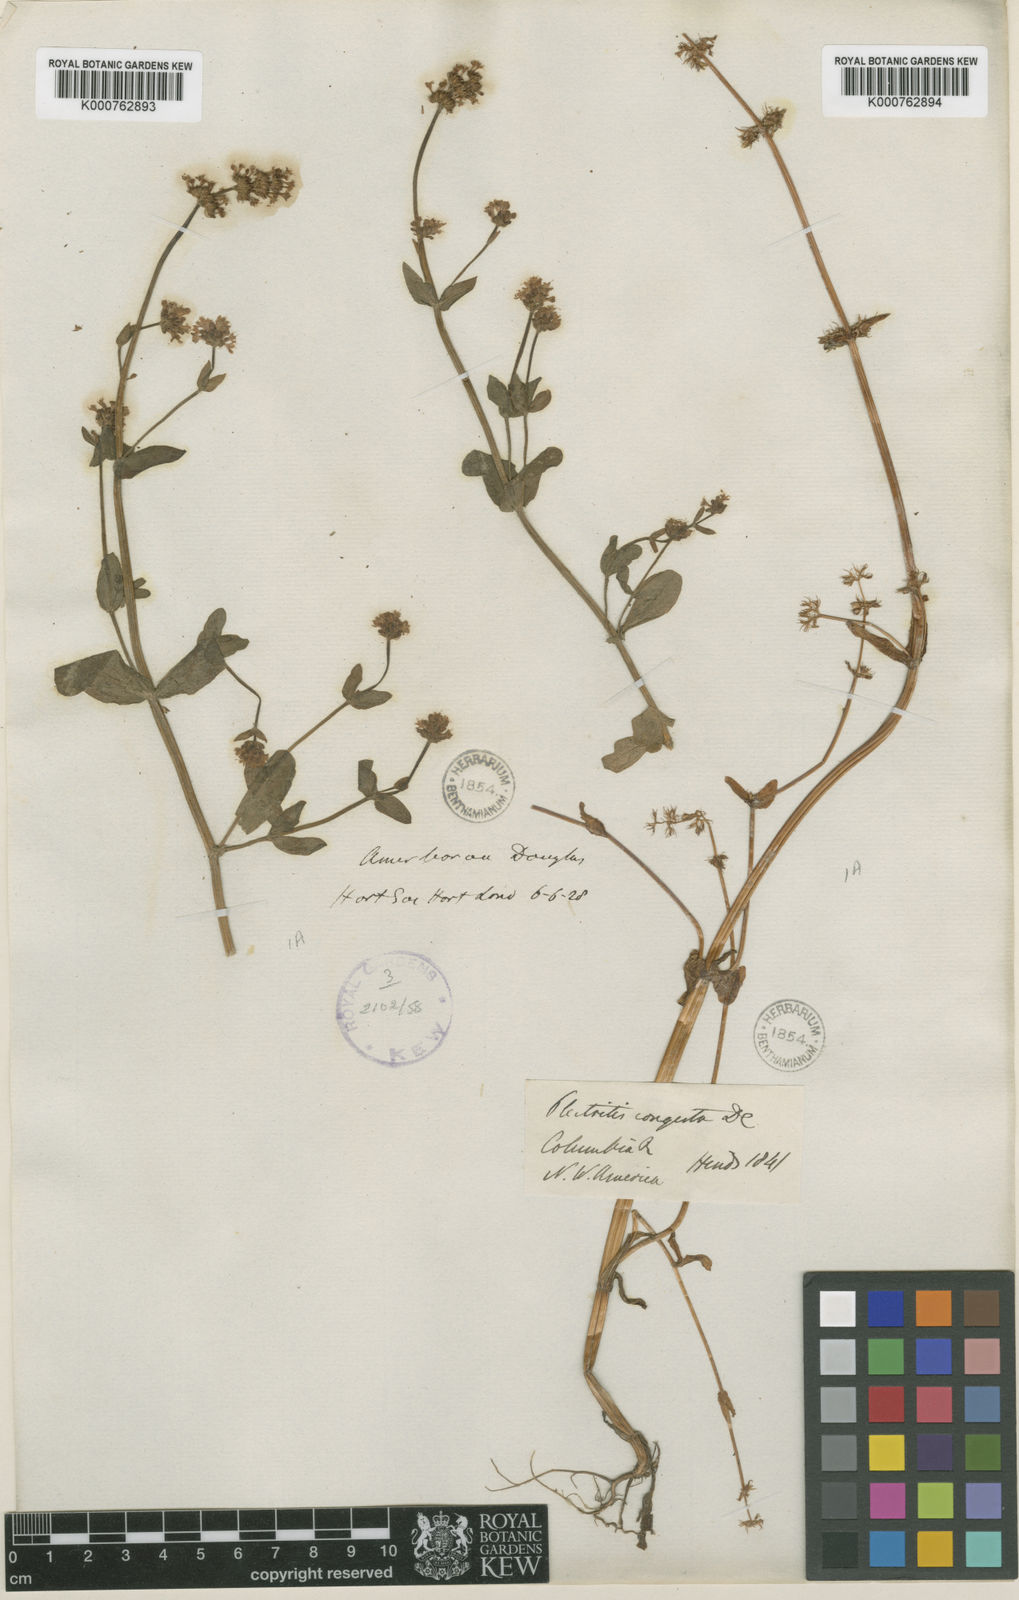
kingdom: Plantae
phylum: Tracheophyta
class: Magnoliopsida
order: Dipsacales
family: Caprifoliaceae
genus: Plectritis
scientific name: Plectritis congesta
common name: Pink plectritis
